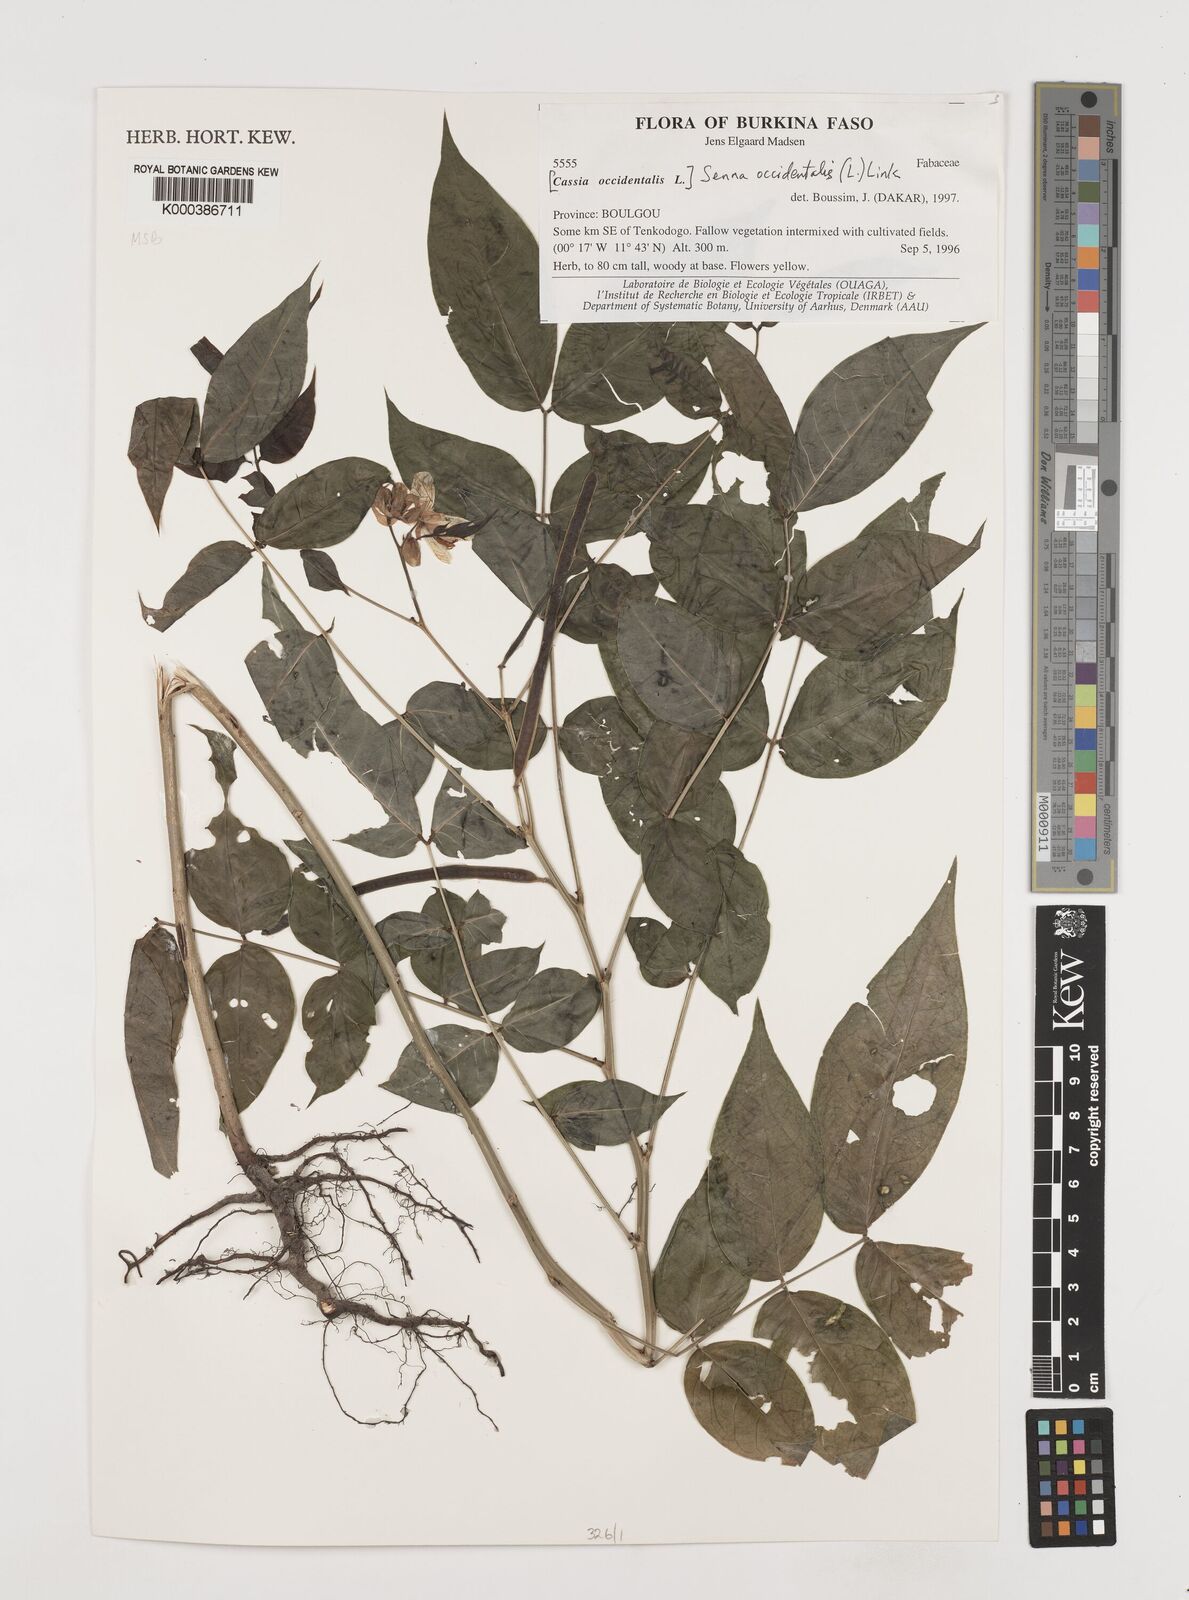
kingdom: Plantae
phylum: Tracheophyta
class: Magnoliopsida
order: Fabales
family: Fabaceae
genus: Senna
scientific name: Senna occidentalis
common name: Septicweed
